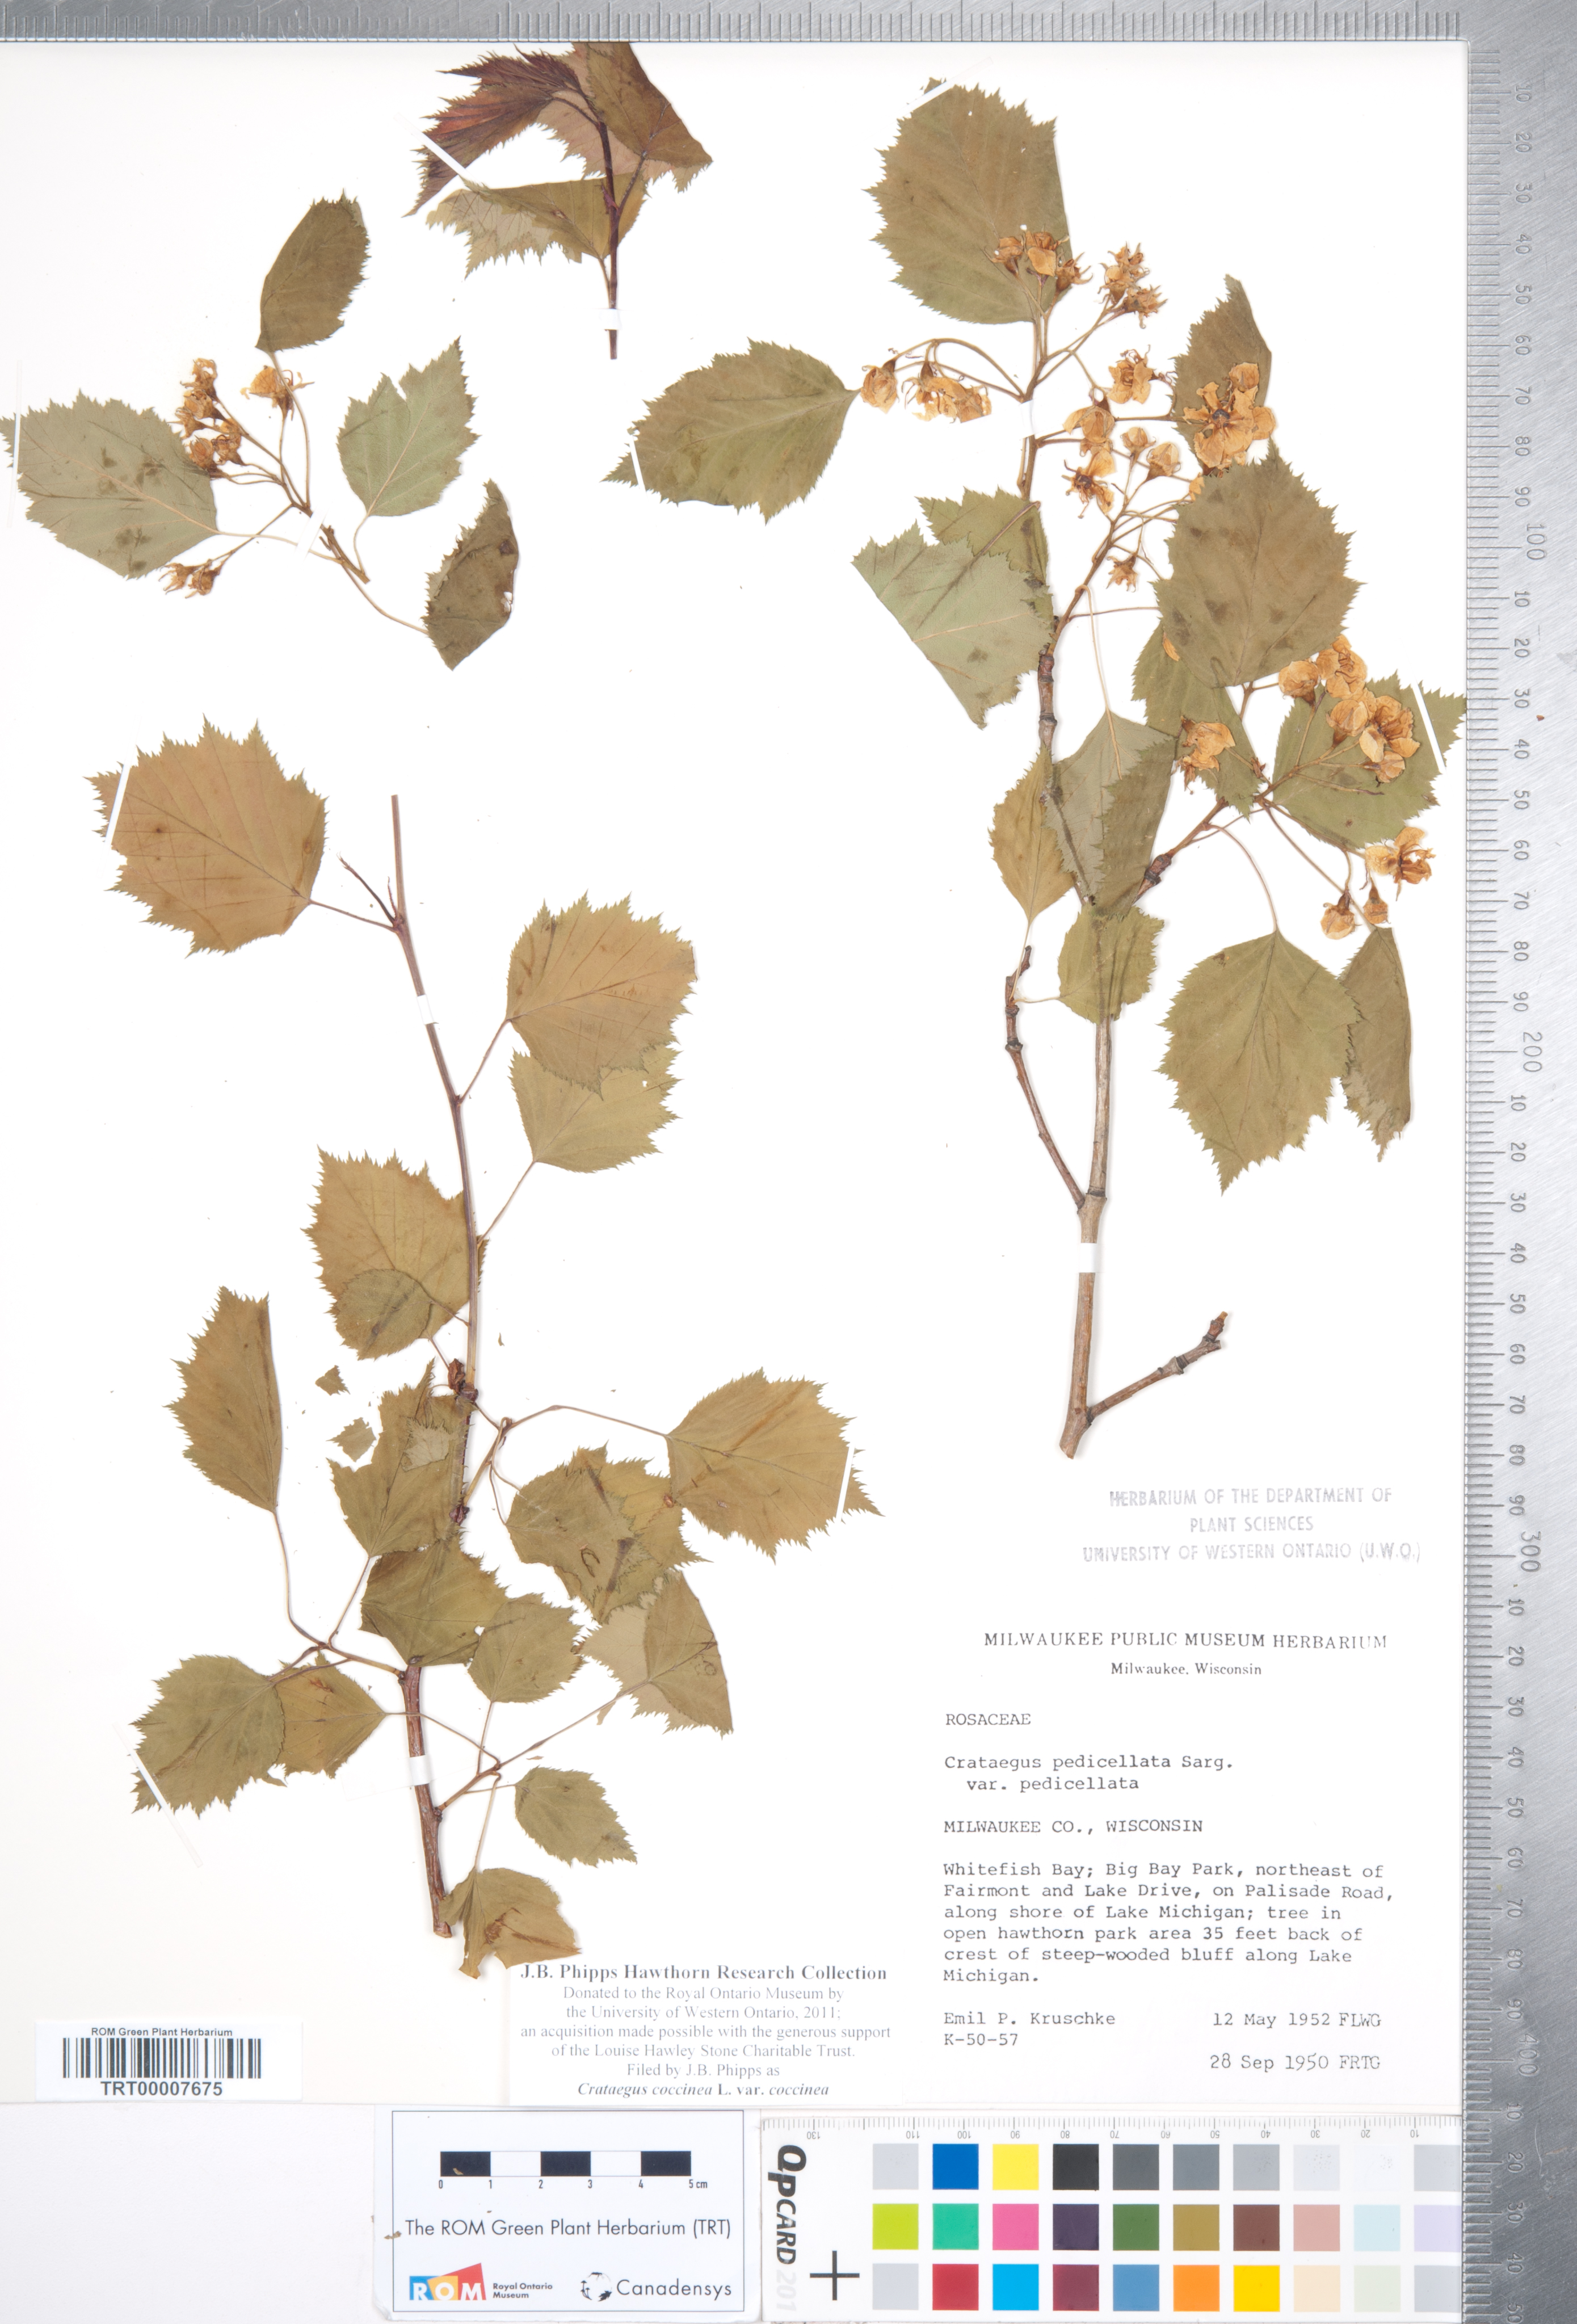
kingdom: Plantae
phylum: Tracheophyta
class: Magnoliopsida
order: Rosales
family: Rosaceae
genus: Crataegus
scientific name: Crataegus coccinea
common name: Scarlet hawthorn
